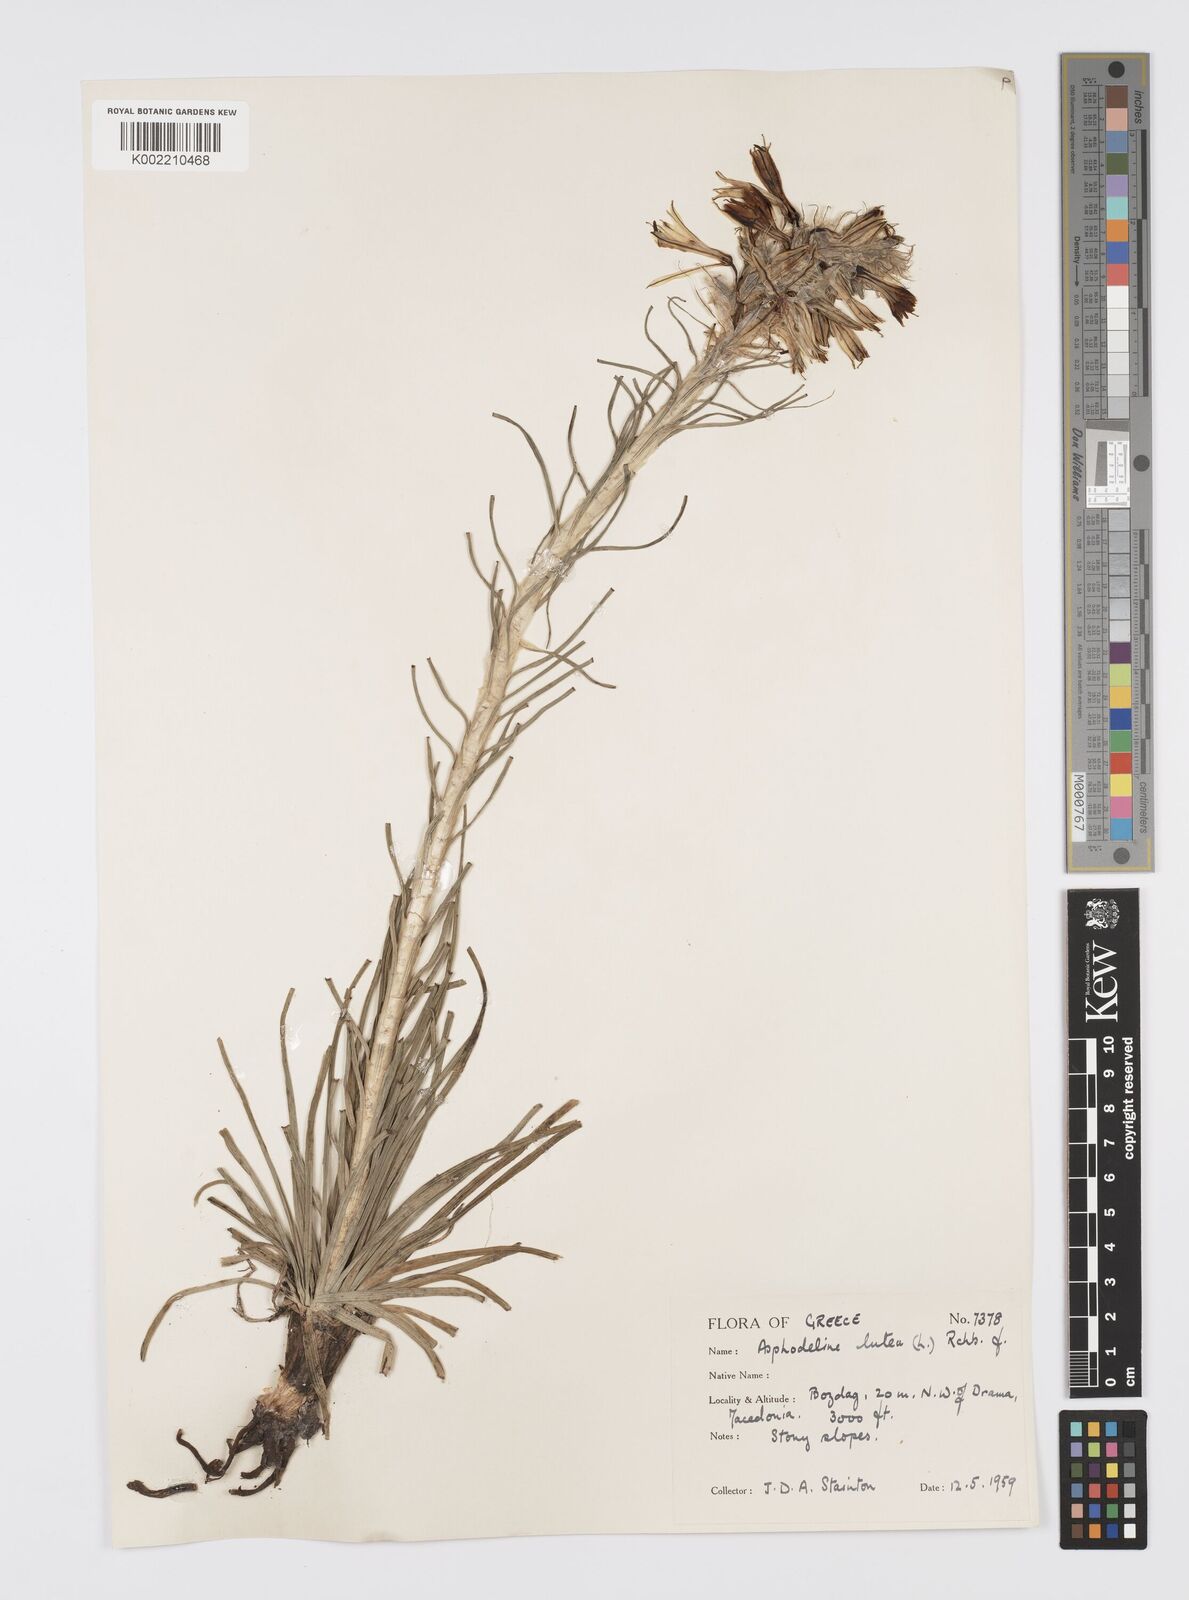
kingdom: Plantae
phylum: Tracheophyta
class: Liliopsida
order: Asparagales
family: Asphodelaceae
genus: Asphodeline
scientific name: Asphodeline lutea
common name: Yellow asphodel
